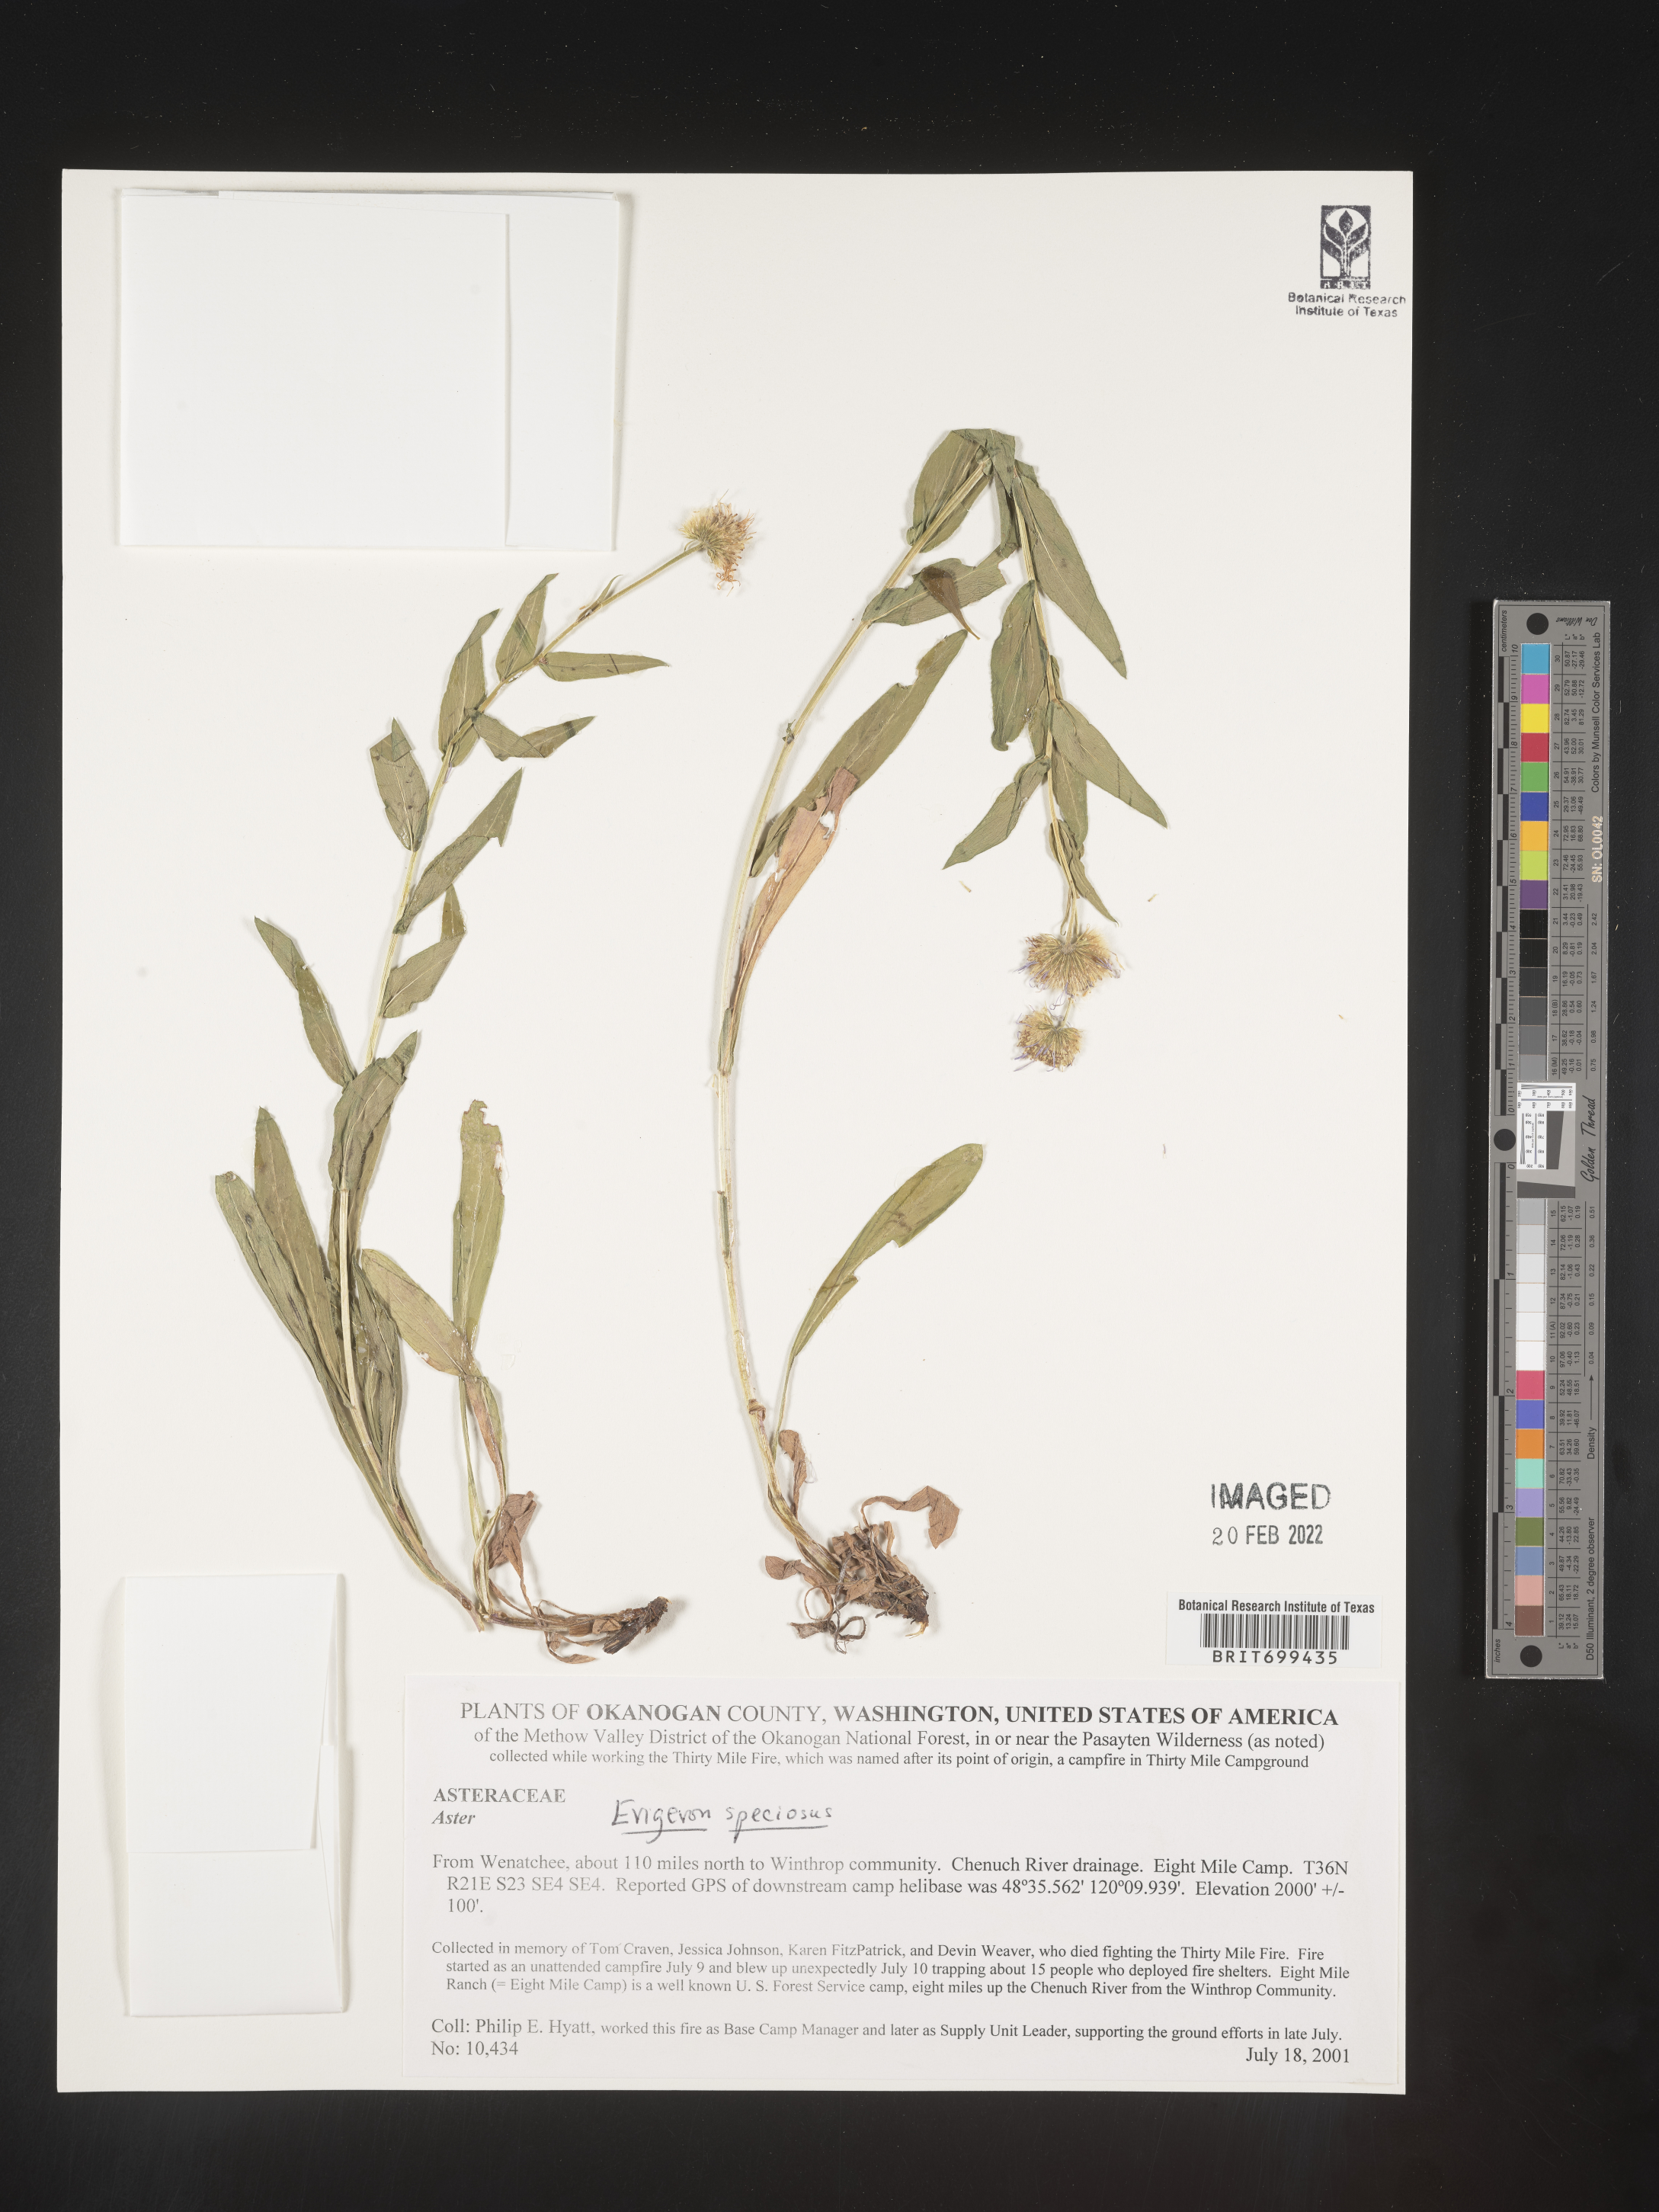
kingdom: Plantae
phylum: Tracheophyta
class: Magnoliopsida
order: Asterales
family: Asteraceae
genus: Erigeron
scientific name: Erigeron speciosus
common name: Aspen fleabane
